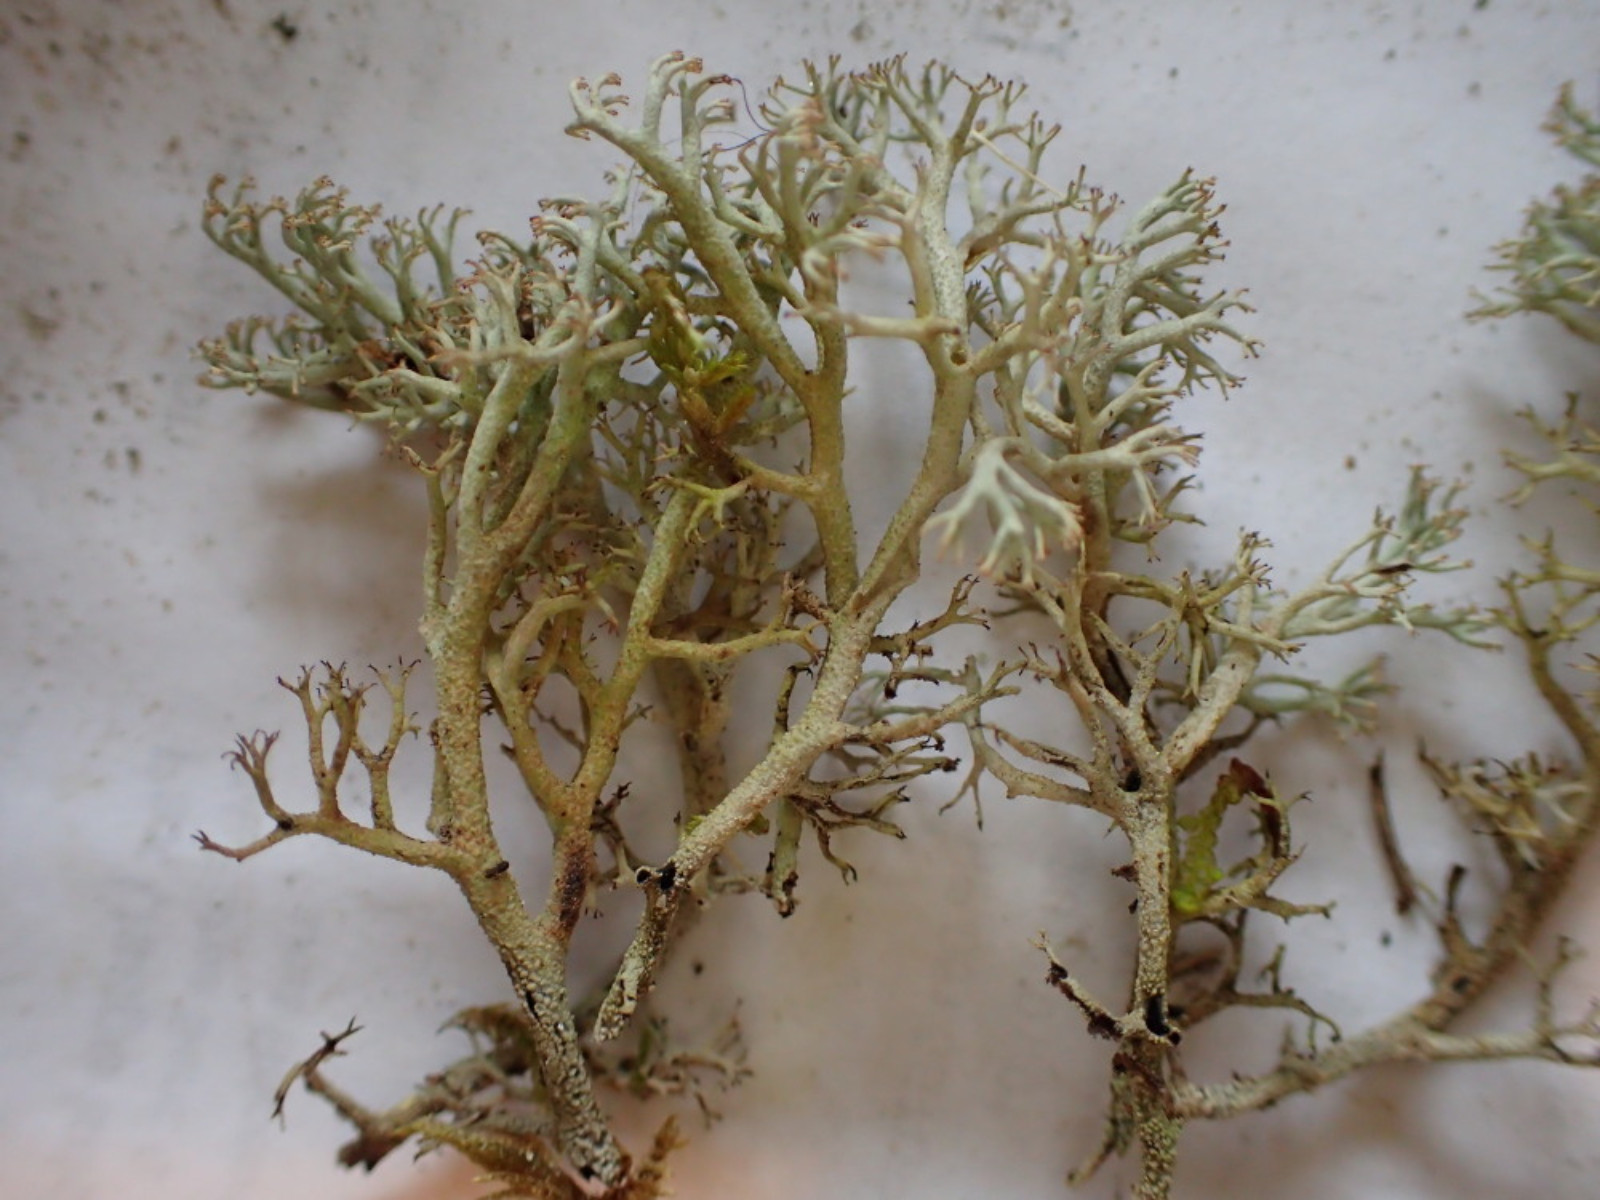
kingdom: Fungi
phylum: Ascomycota
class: Lecanoromycetes
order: Lecanorales
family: Cladoniaceae
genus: Cladonia
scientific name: Cladonia stygia
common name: styg rensdyrlav
